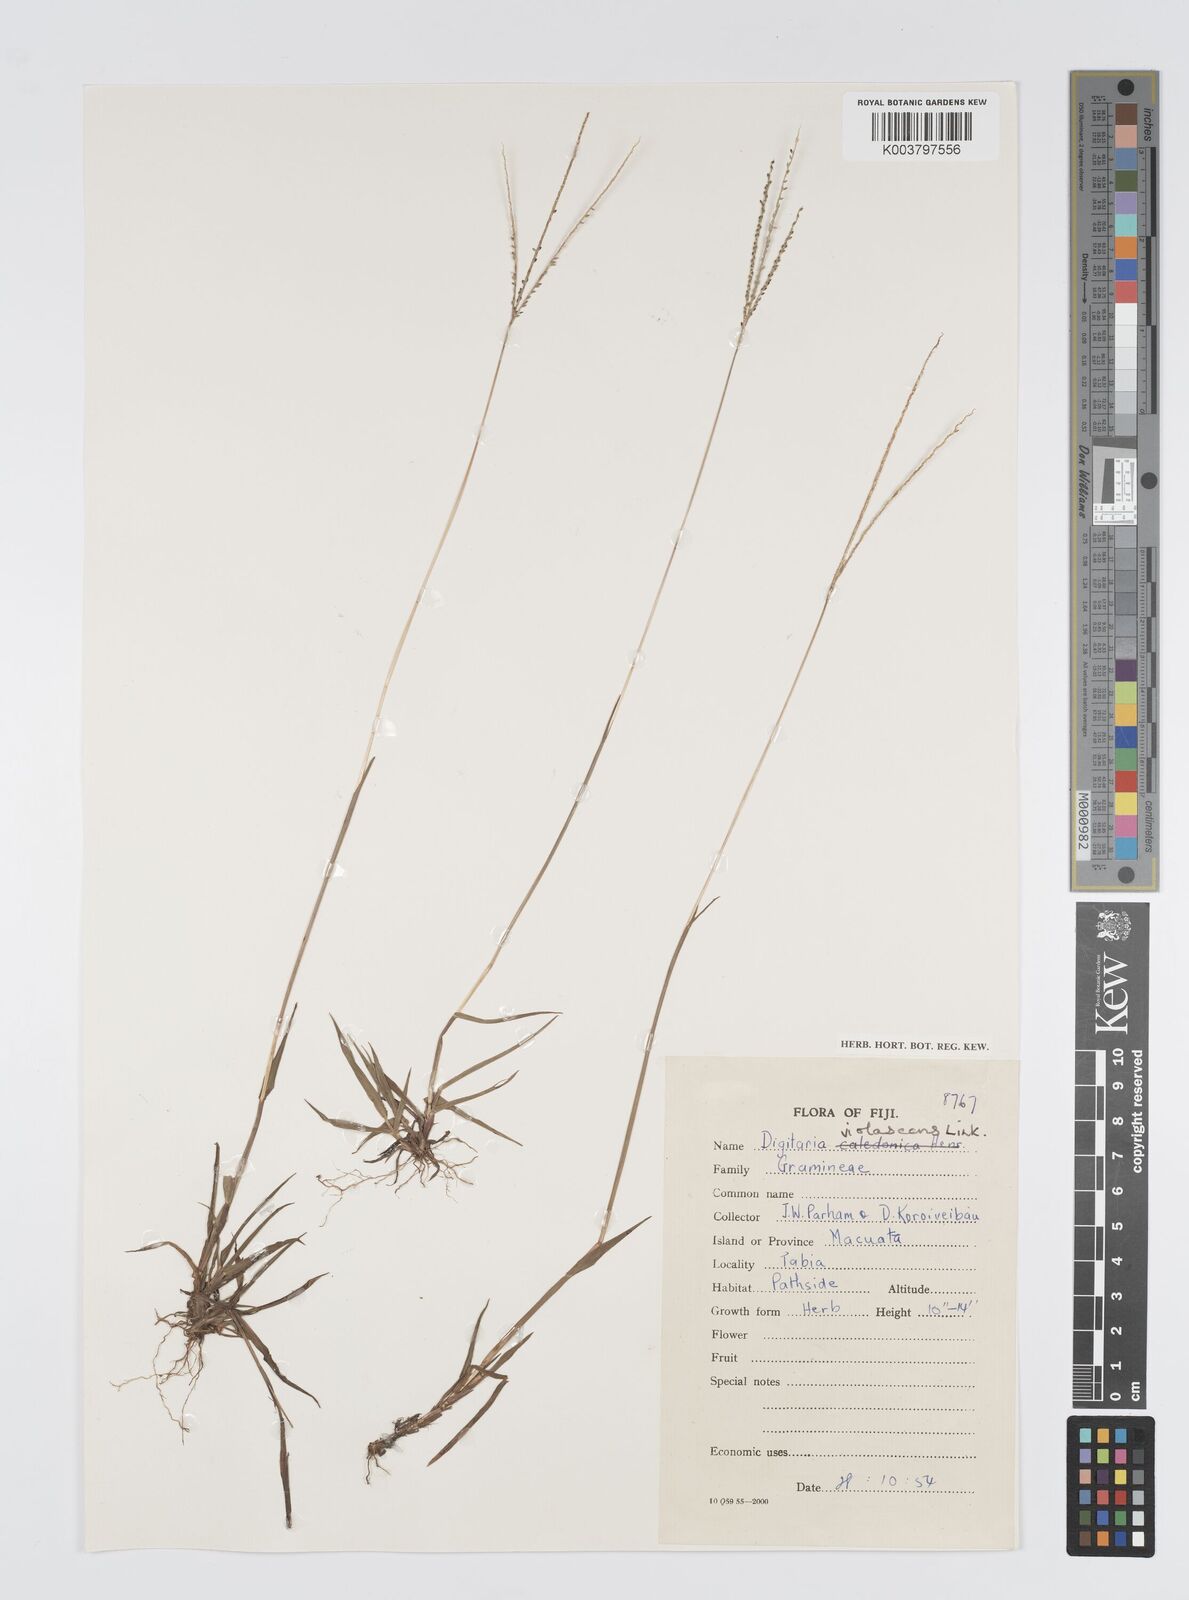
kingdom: Plantae
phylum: Tracheophyta
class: Liliopsida
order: Poales
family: Poaceae
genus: Digitaria
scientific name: Digitaria violascens
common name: Violet crabgrass
